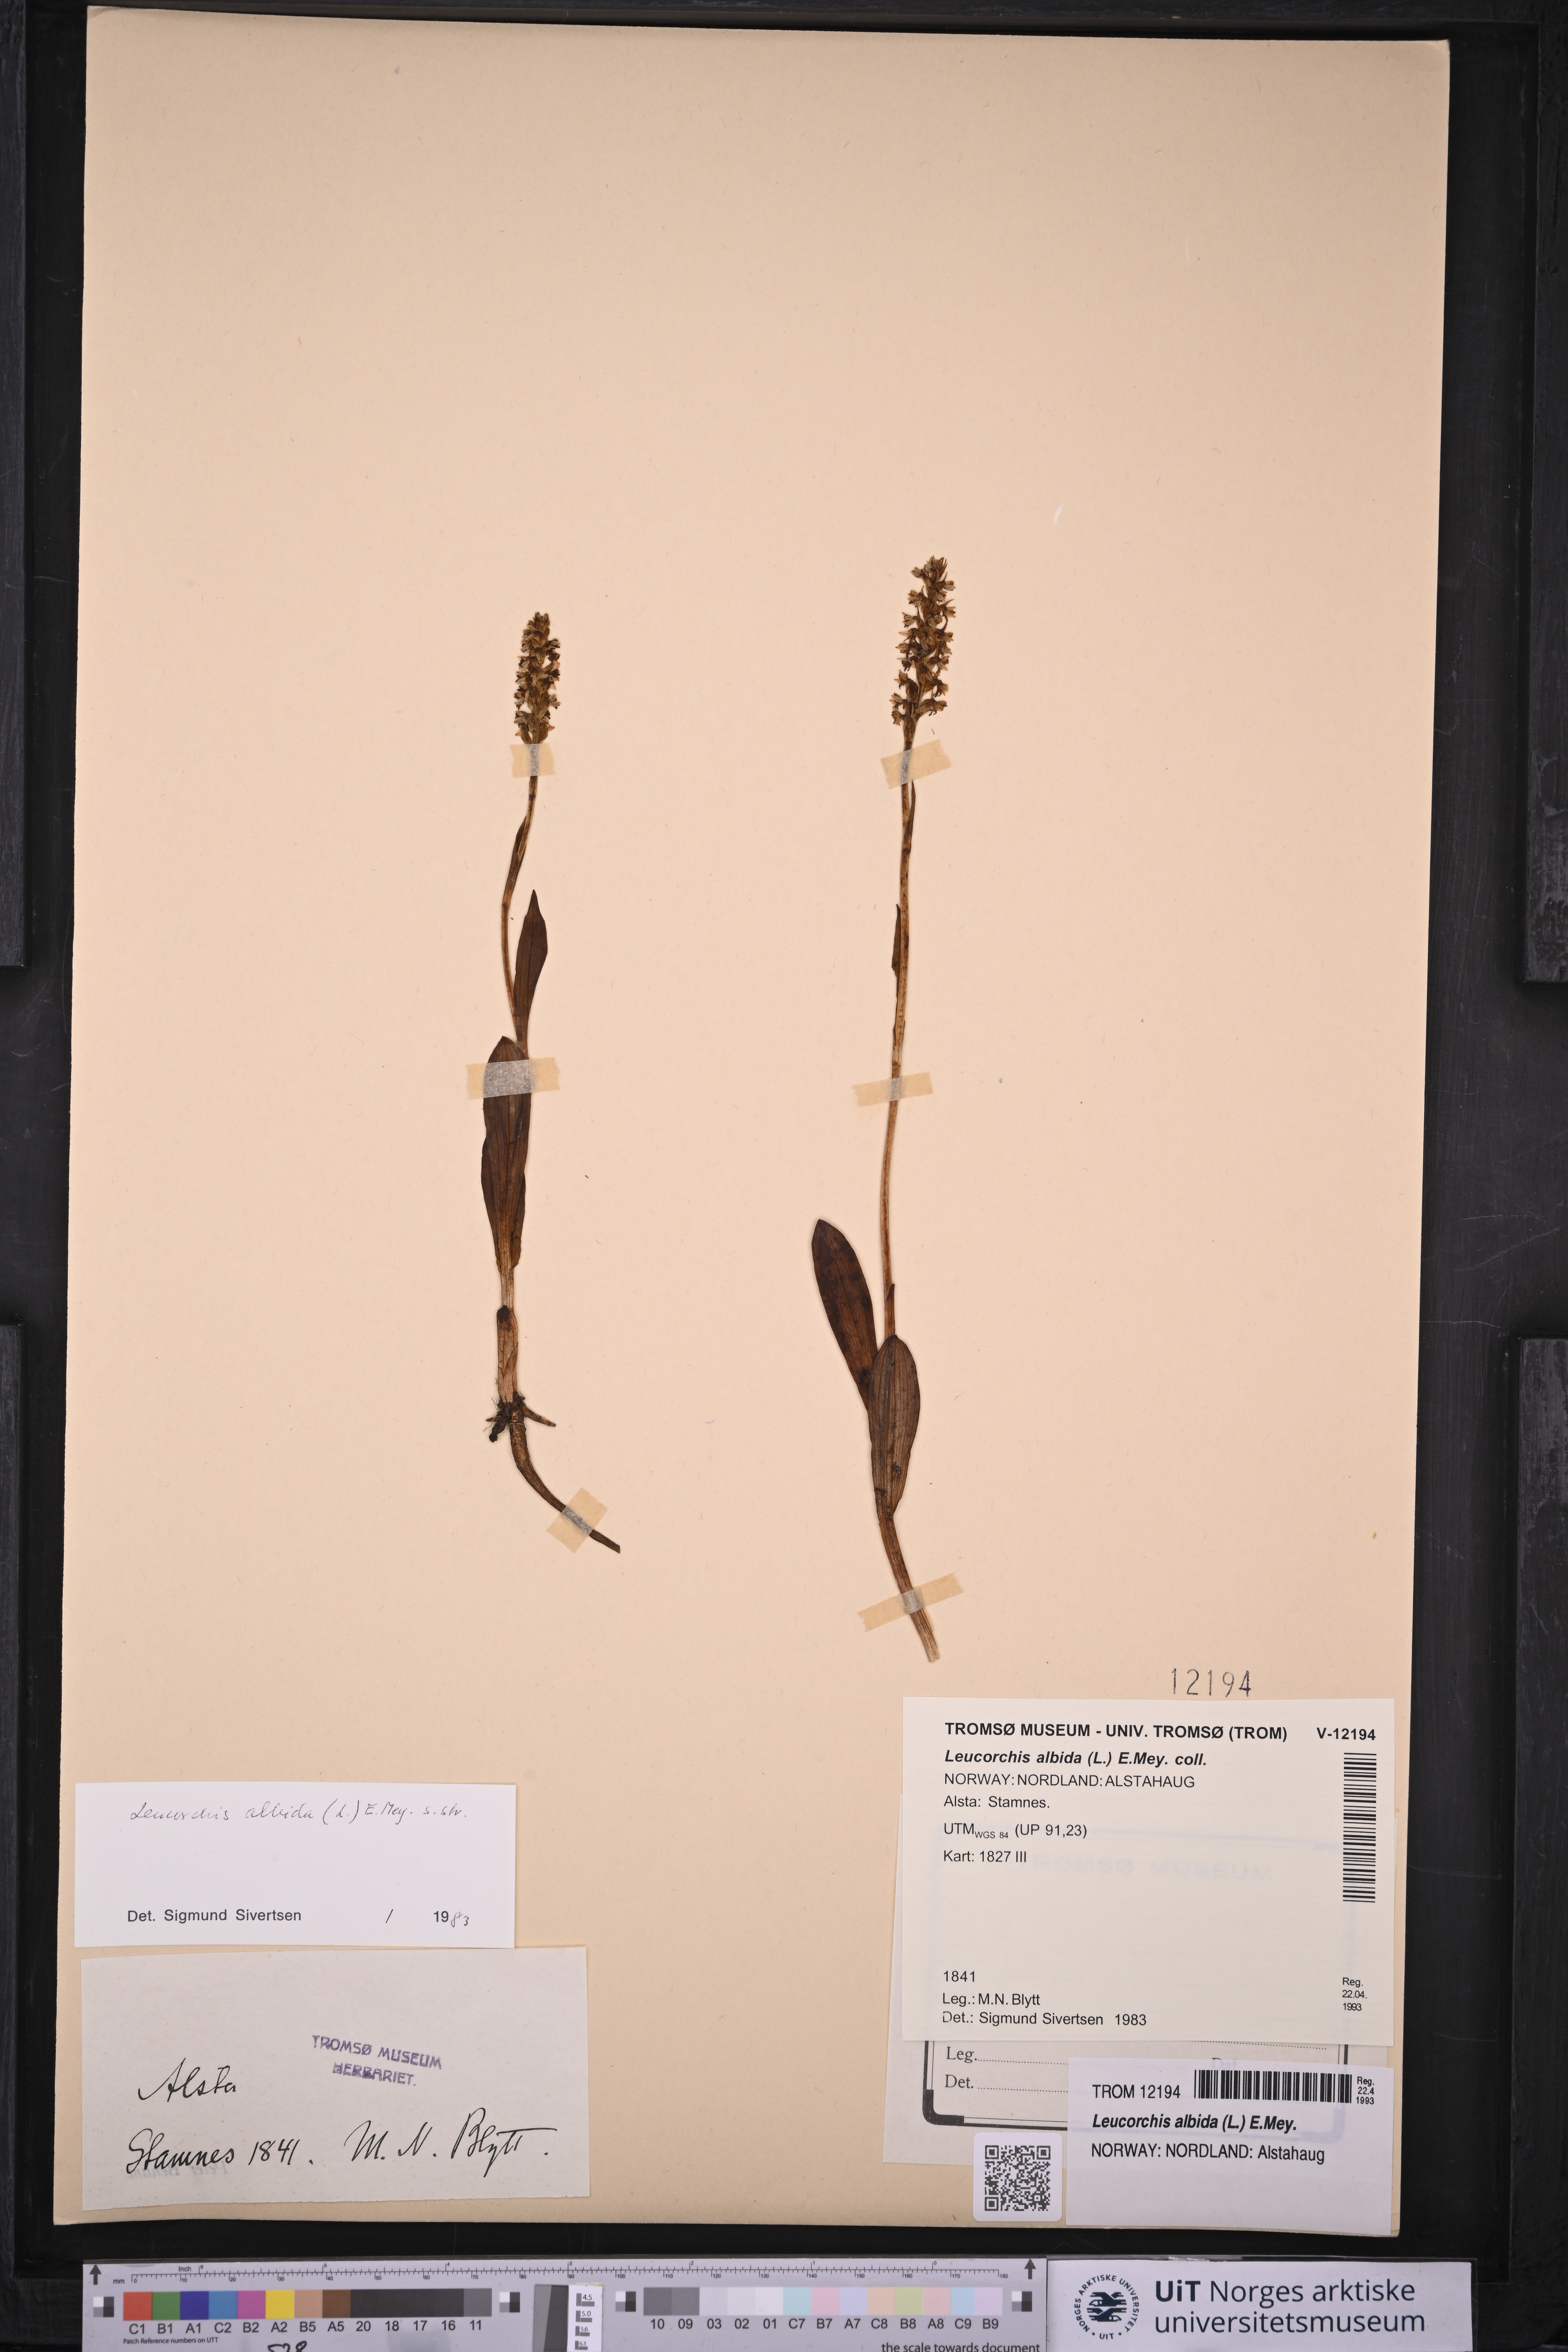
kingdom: Plantae
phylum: Tracheophyta
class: Liliopsida
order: Asparagales
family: Orchidaceae
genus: Pseudorchis
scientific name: Pseudorchis albida
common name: Small-white orchid
